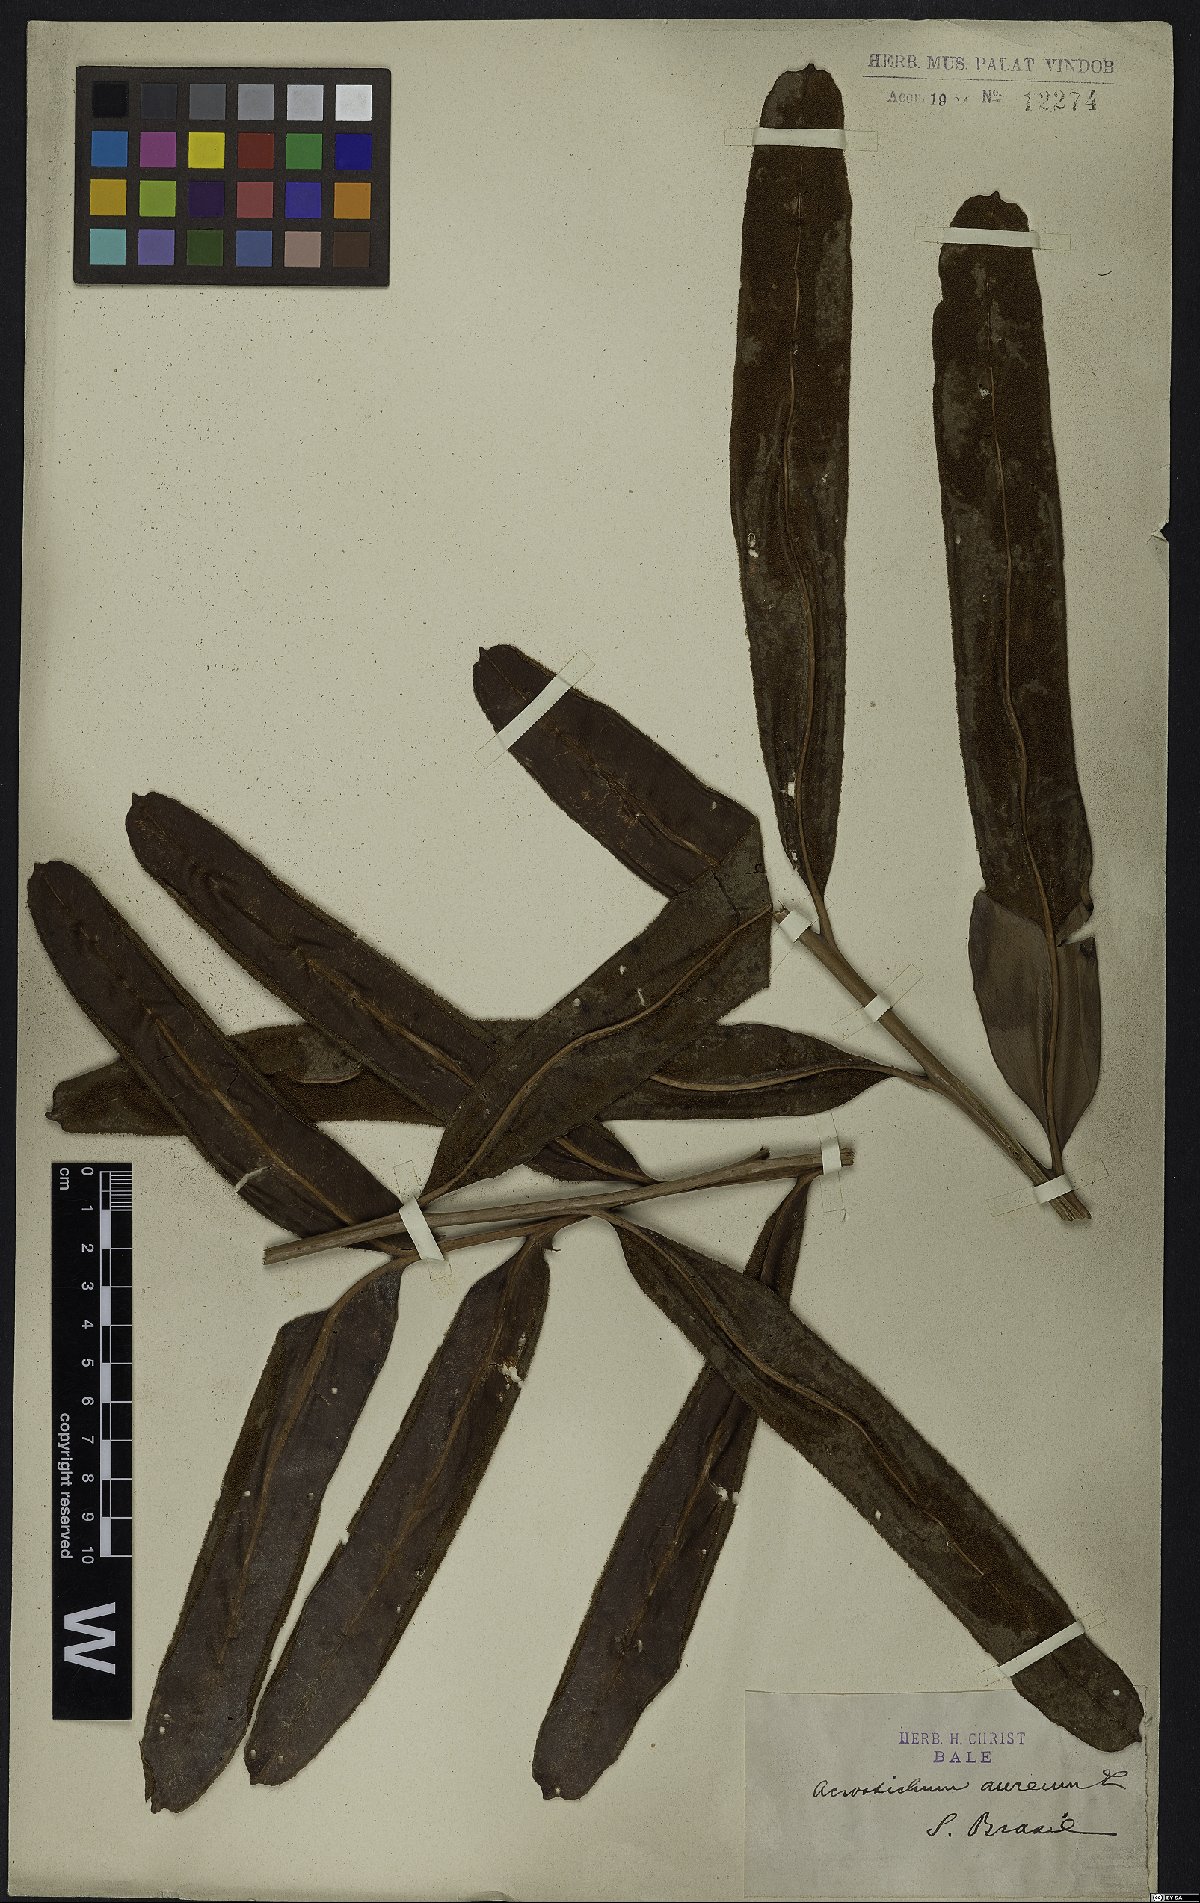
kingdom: Plantae
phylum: Tracheophyta
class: Polypodiopsida
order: Polypodiales
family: Pteridaceae
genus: Acrostichum
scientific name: Acrostichum aureum
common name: Leather fern
